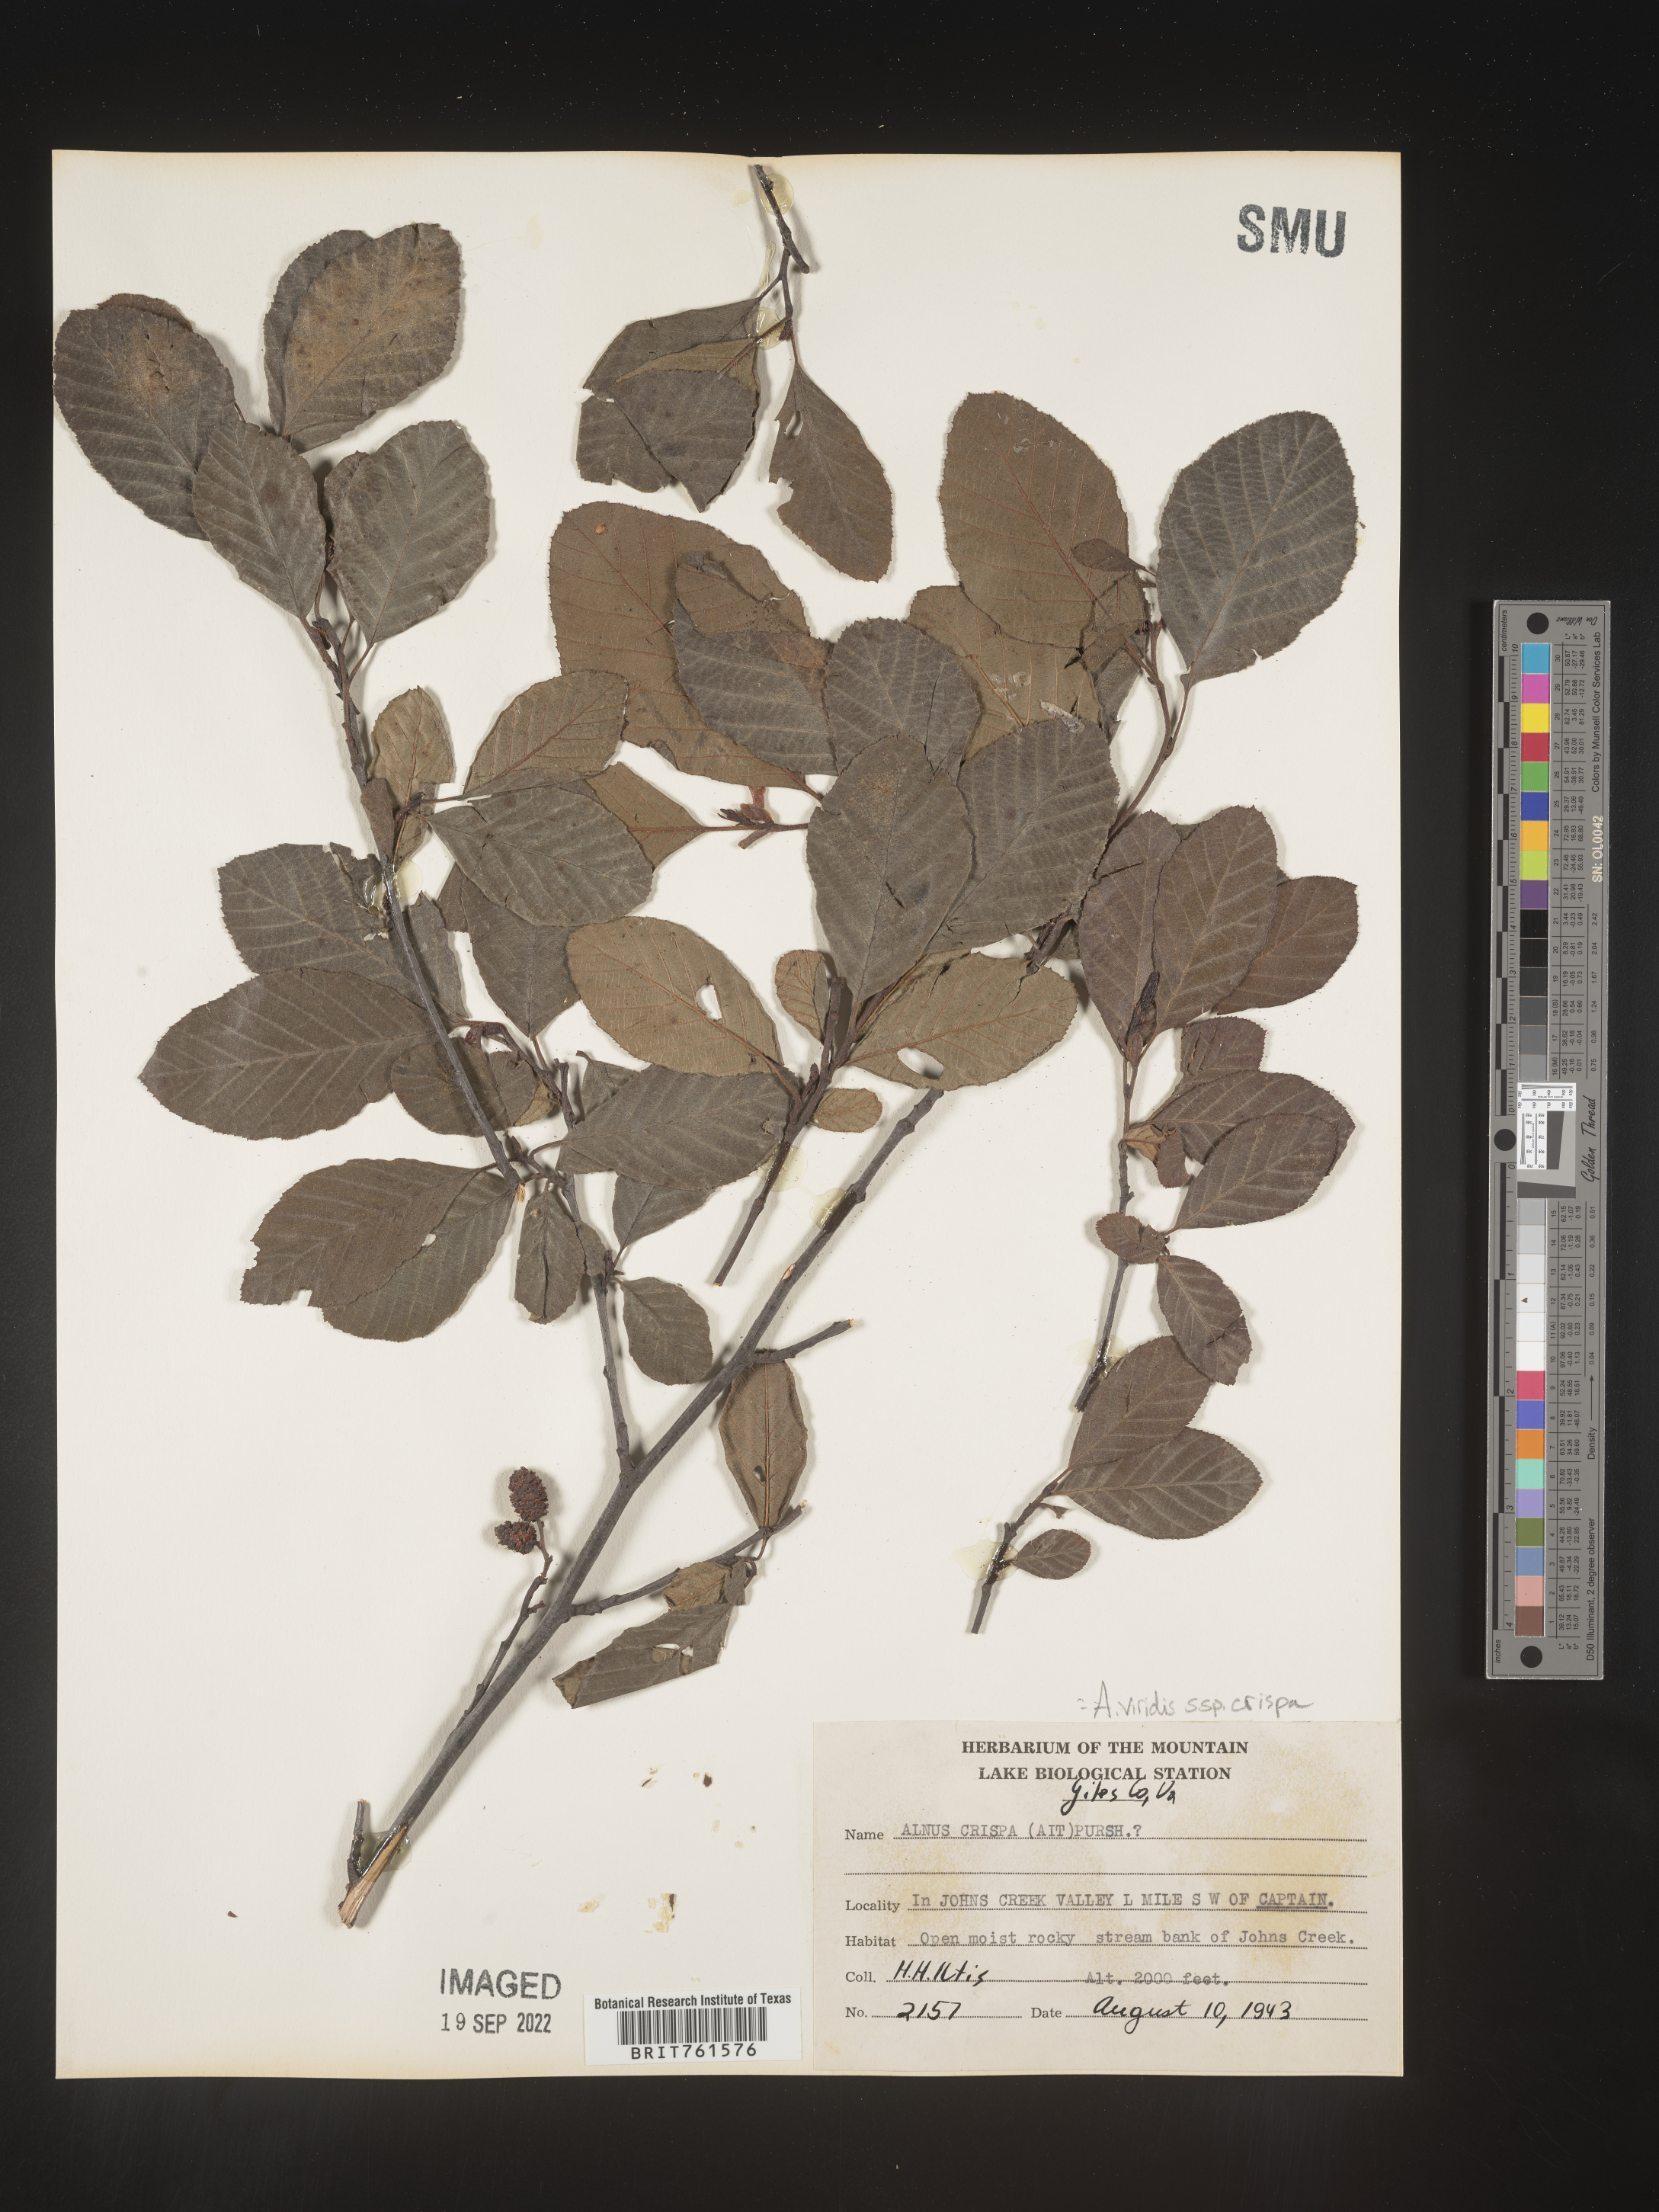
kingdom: Plantae
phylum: Tracheophyta
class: Magnoliopsida
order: Fagales
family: Betulaceae
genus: Alnus
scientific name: Alnus alnobetula
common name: Green alder
